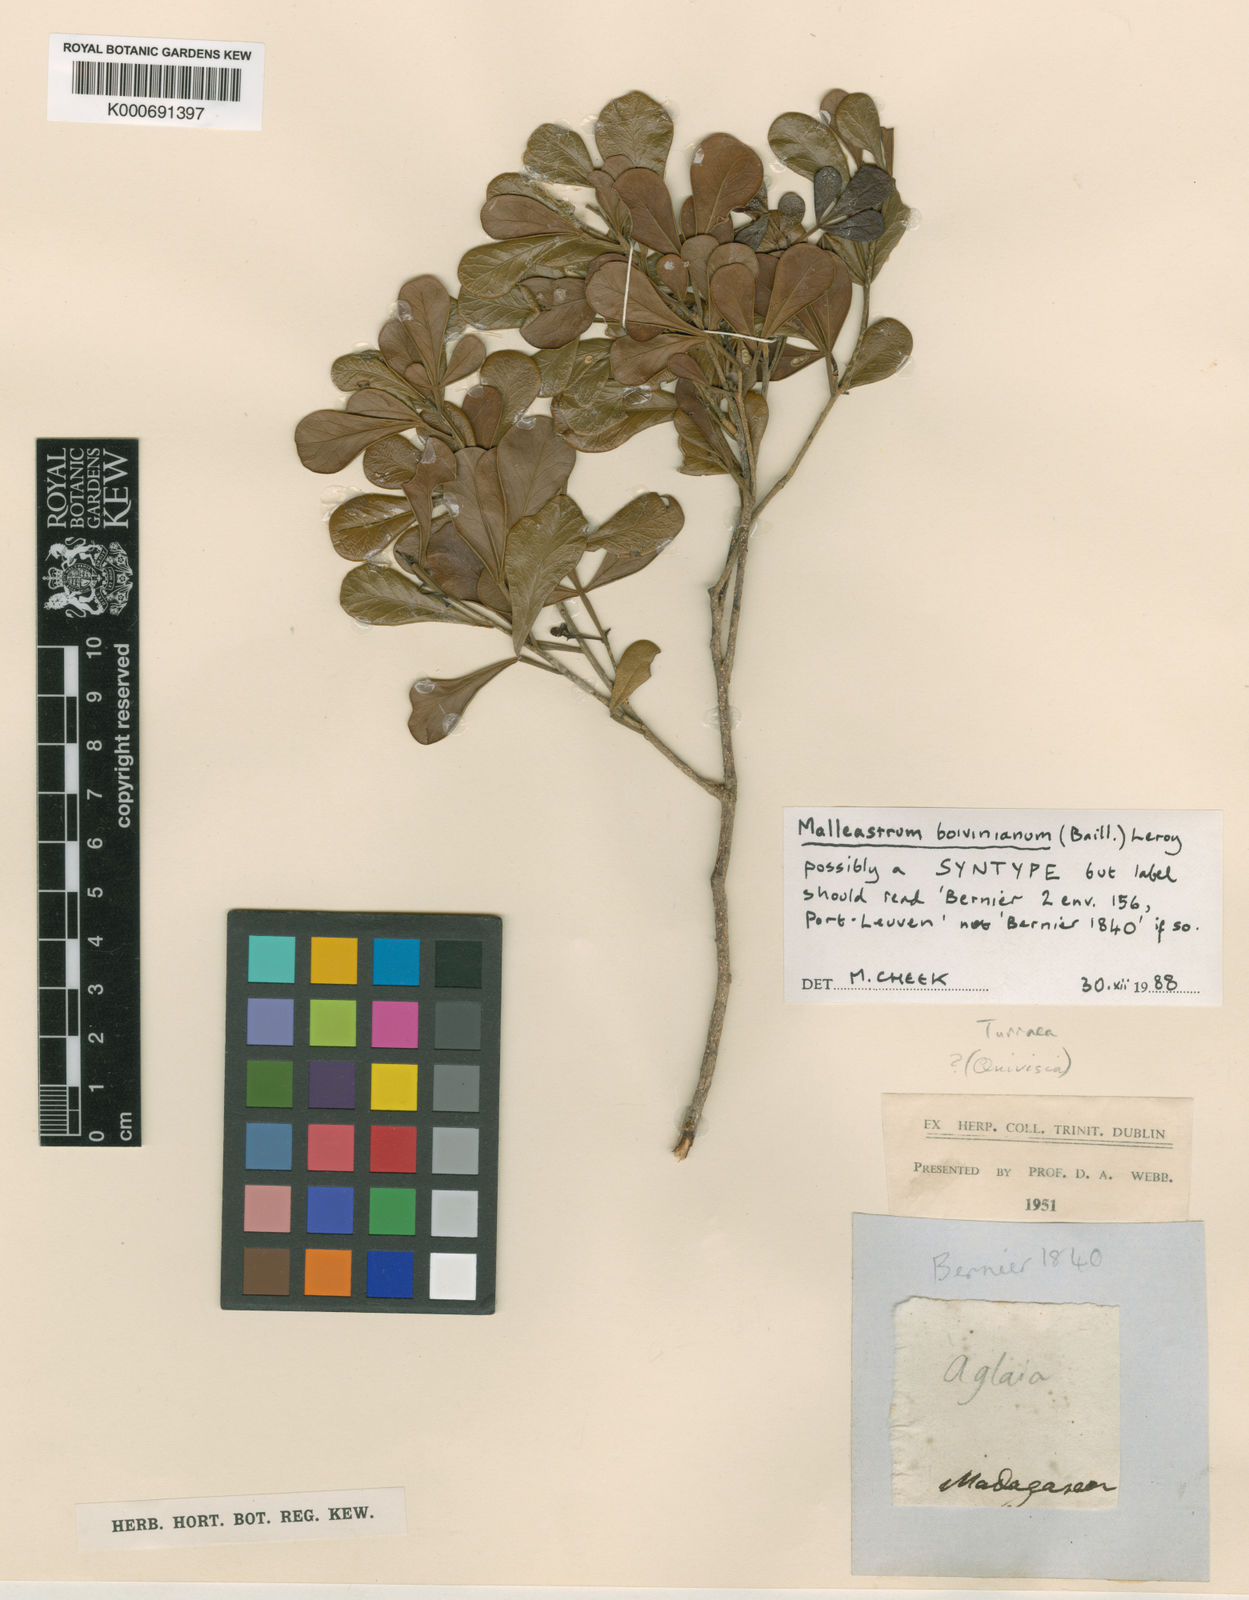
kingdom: Plantae
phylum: Tracheophyta
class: Magnoliopsida
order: Sapindales
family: Meliaceae
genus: Malleastrum
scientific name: Malleastrum boivinianum
